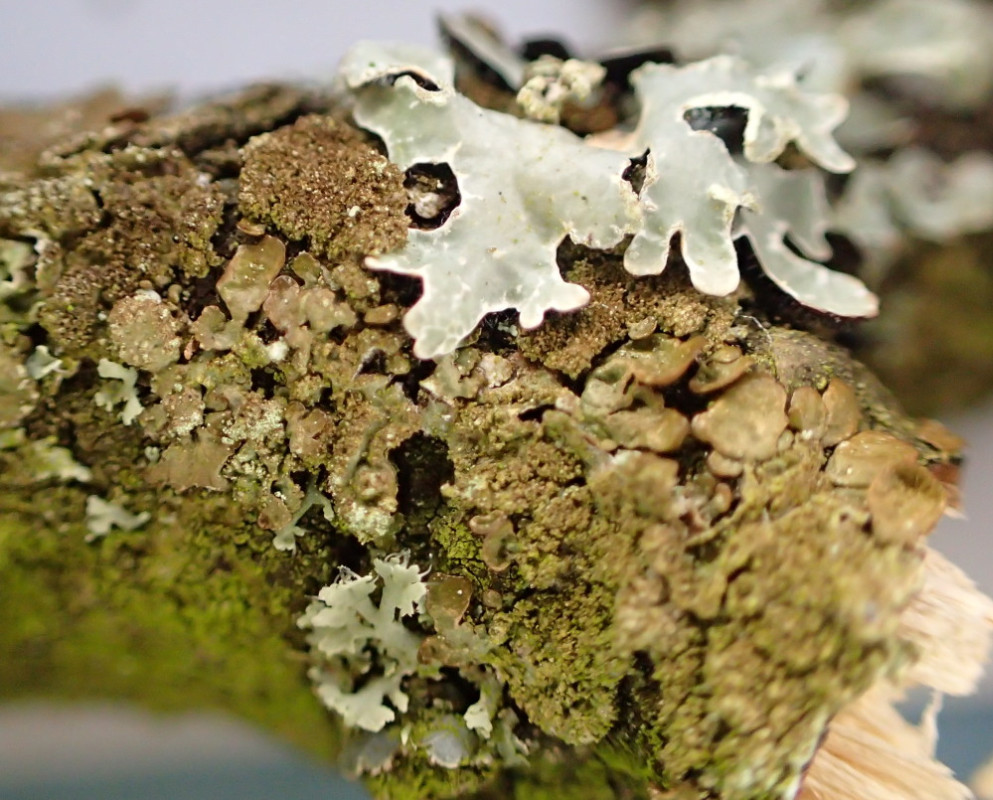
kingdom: Fungi
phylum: Ascomycota
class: Lecanoromycetes
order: Lecanorales
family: Parmeliaceae
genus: Melanelixia
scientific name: Melanelixia subaurifera
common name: guldpudret skållav
